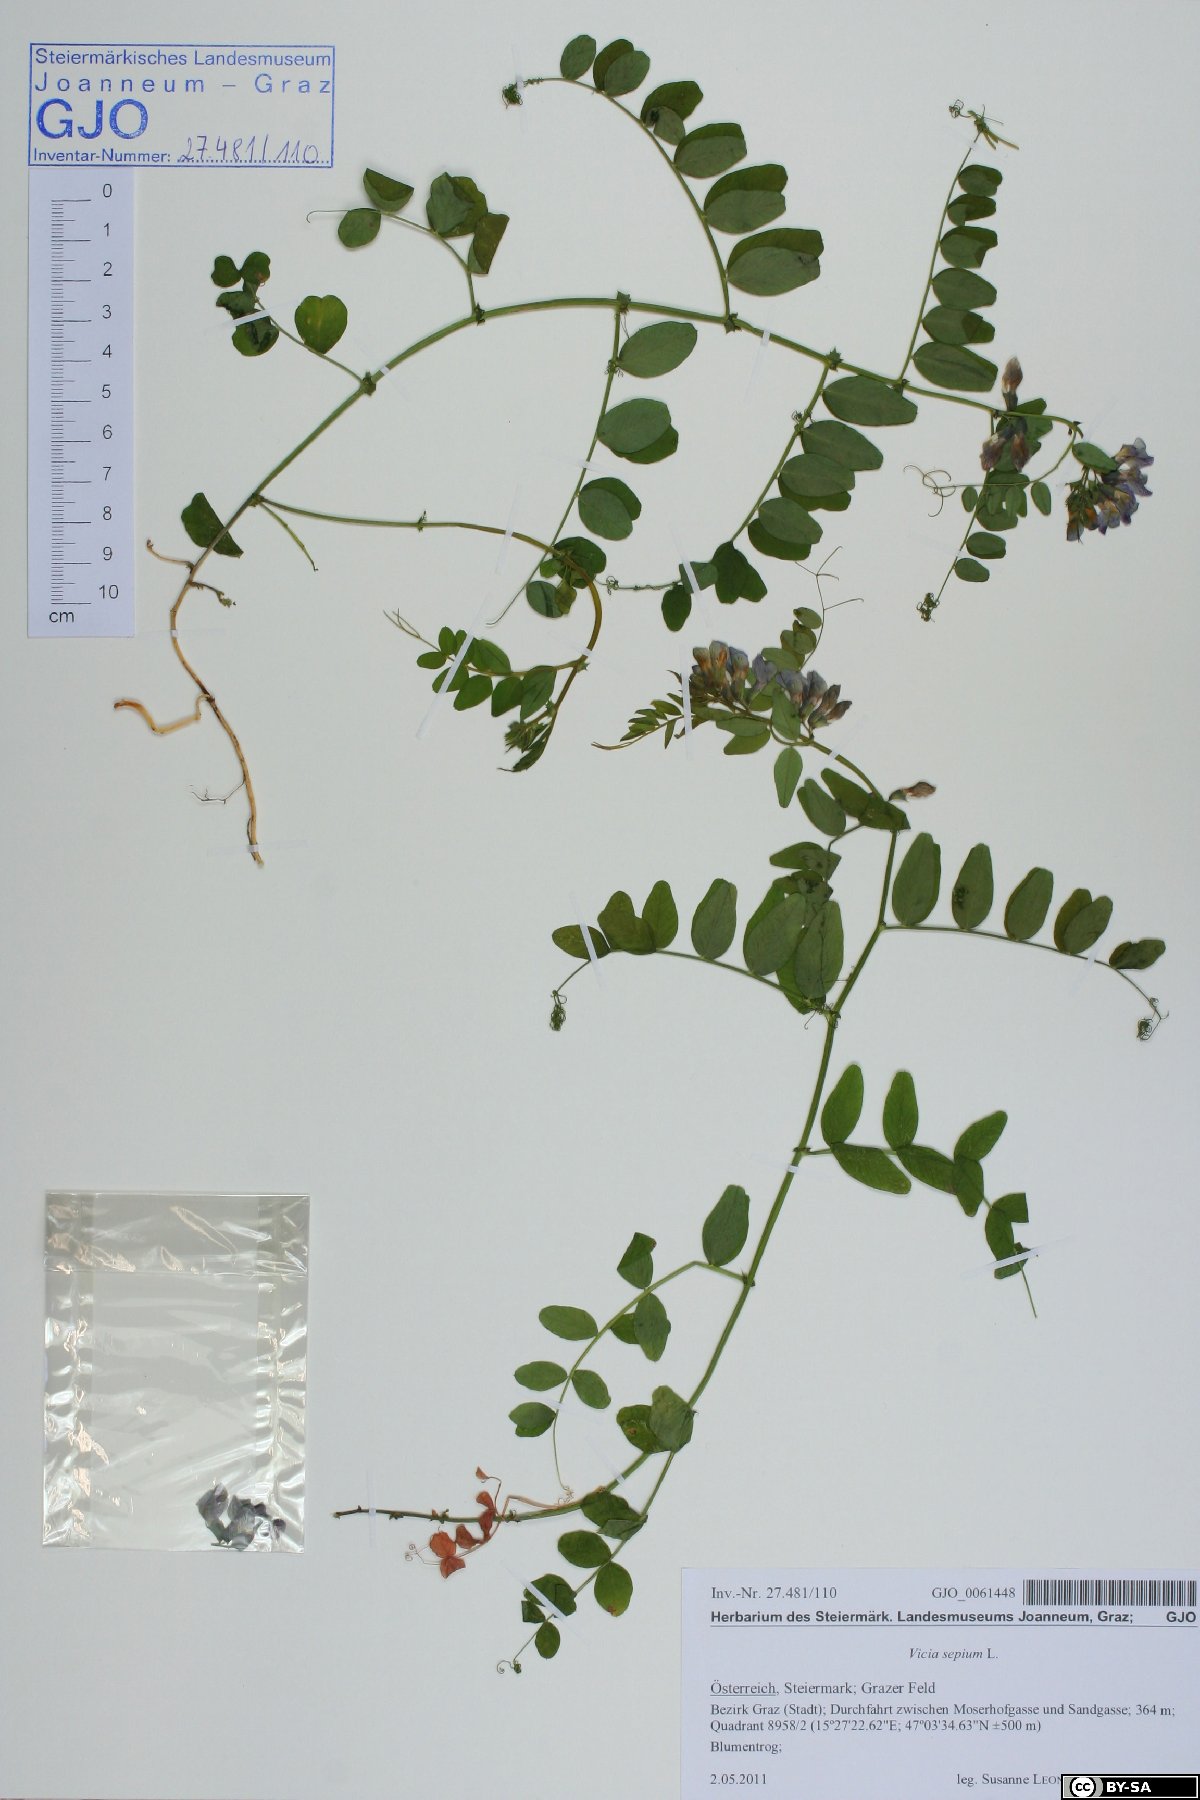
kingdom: Plantae
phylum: Tracheophyta
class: Magnoliopsida
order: Fabales
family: Fabaceae
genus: Vicia
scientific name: Vicia sepium
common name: Bush vetch
